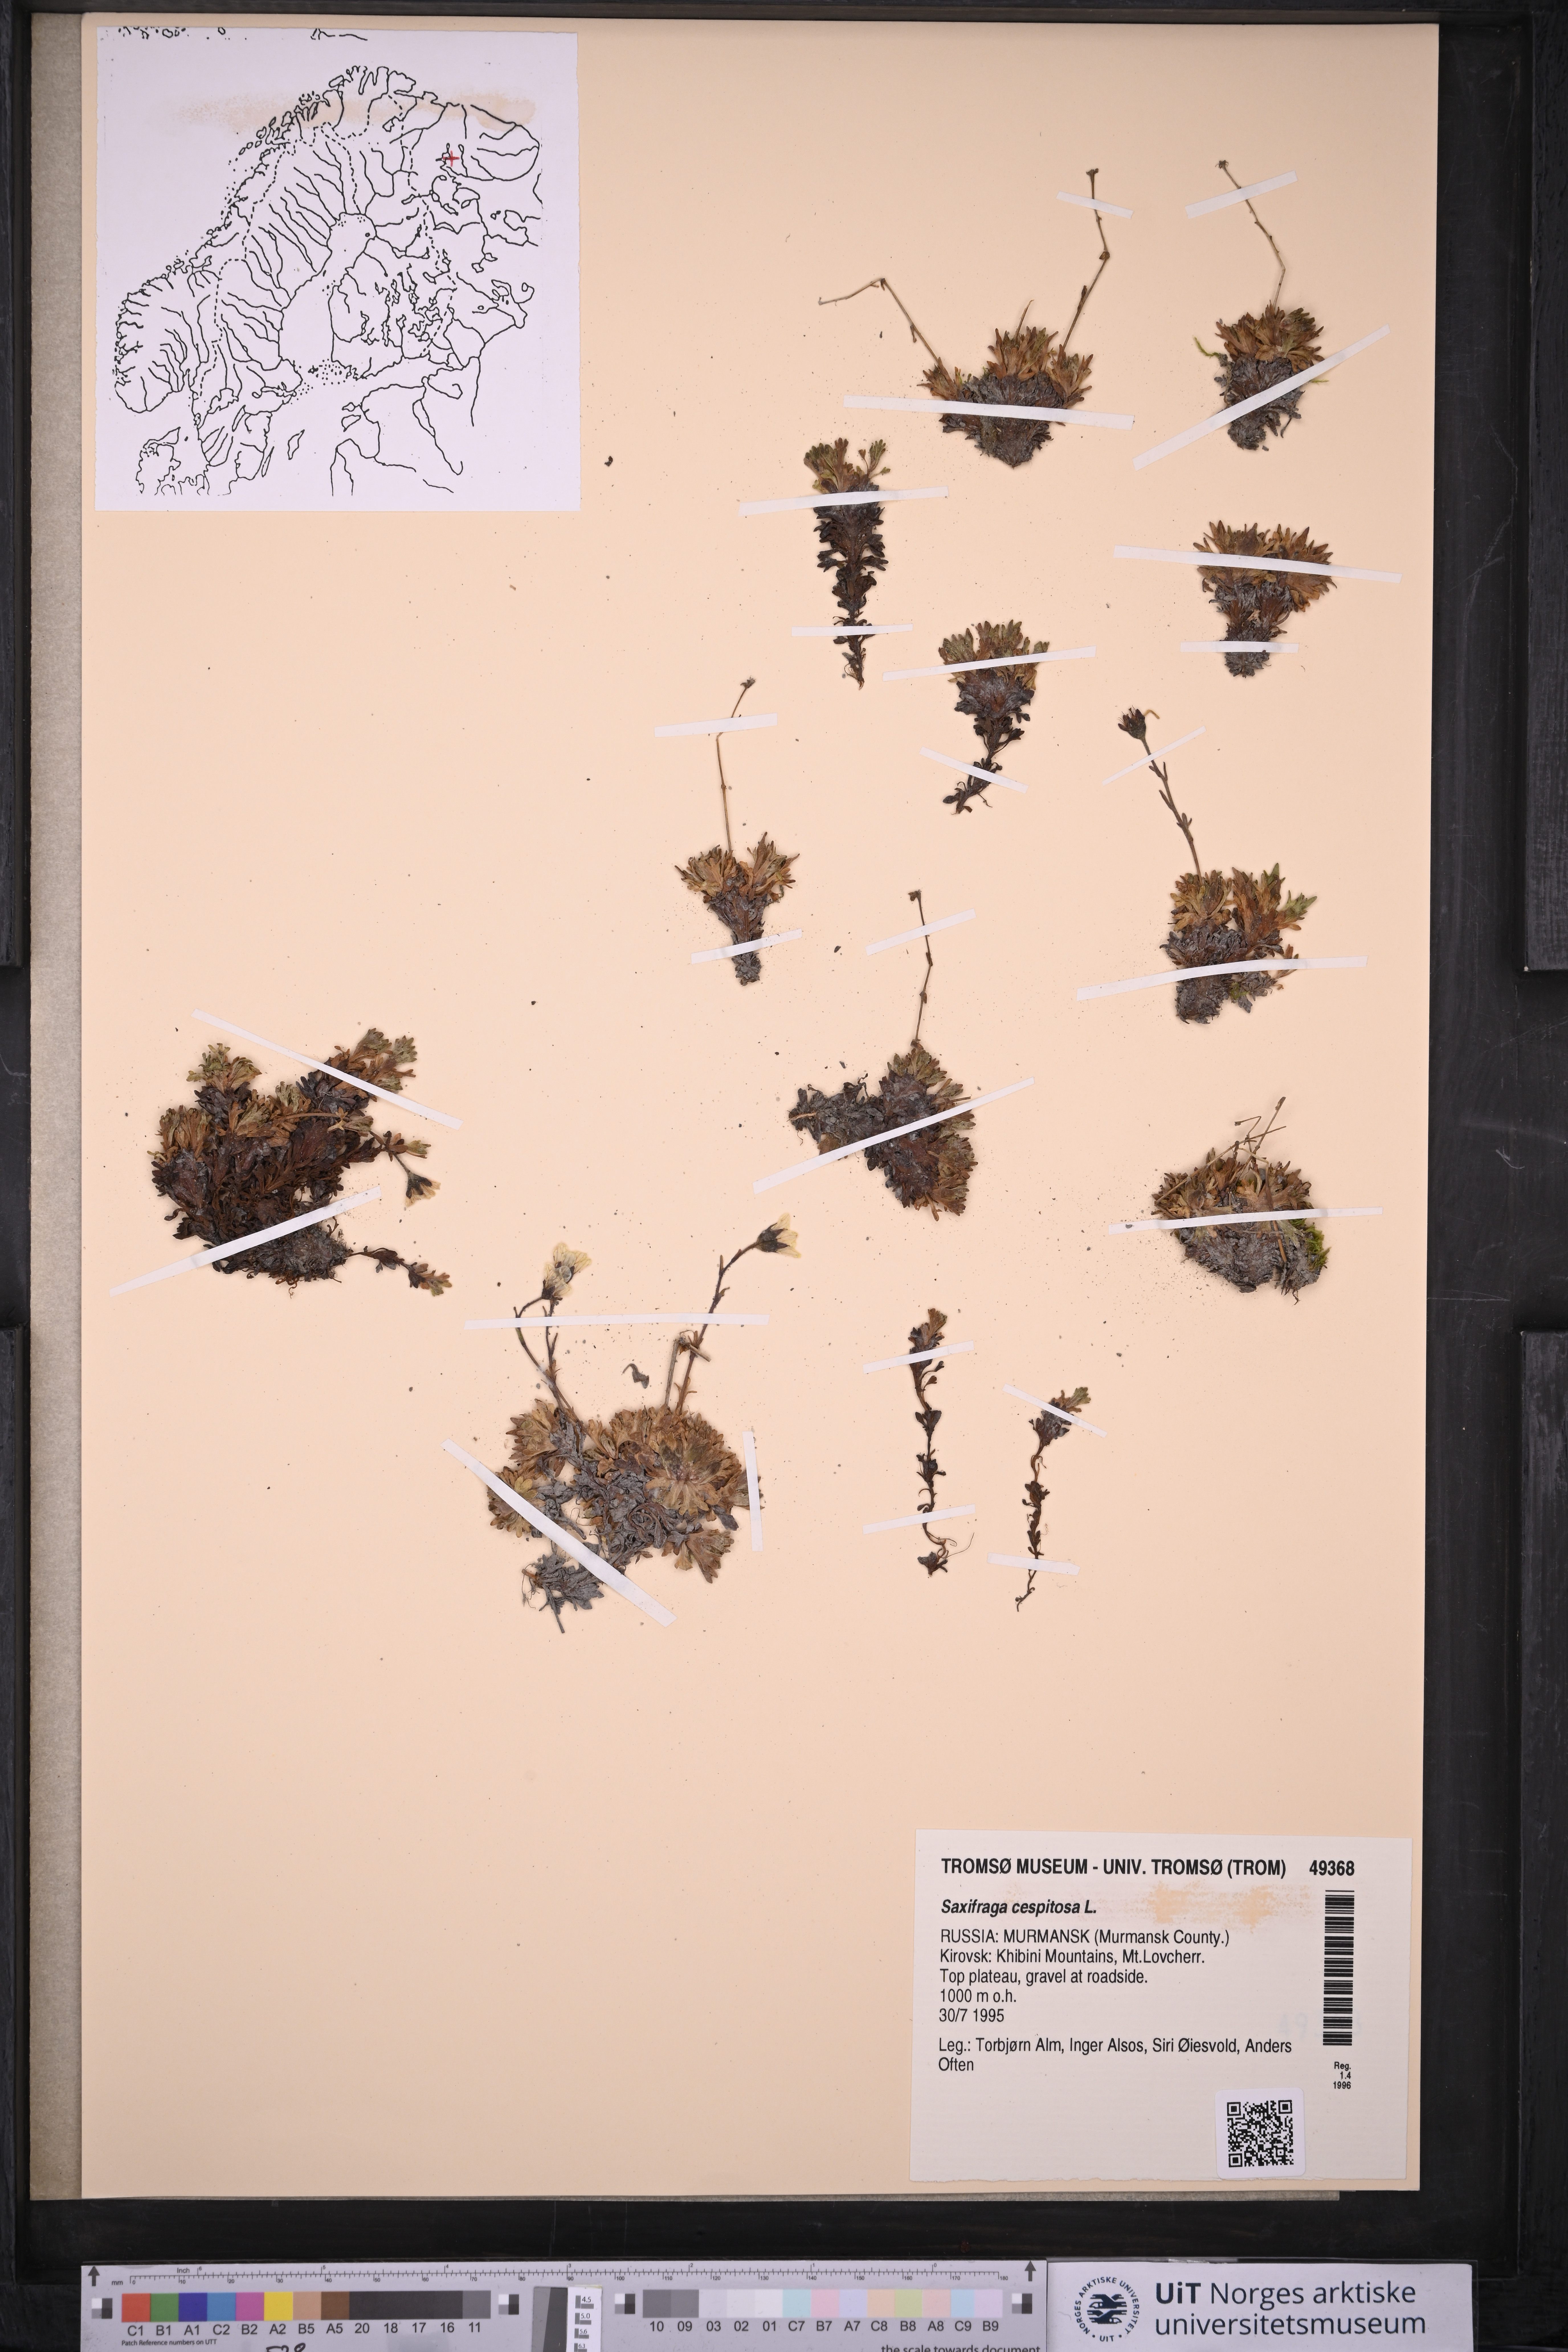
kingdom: Plantae
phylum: Tracheophyta
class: Magnoliopsida
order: Saxifragales
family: Saxifragaceae
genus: Saxifraga
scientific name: Saxifraga cespitosa
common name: Tufted saxifrage
